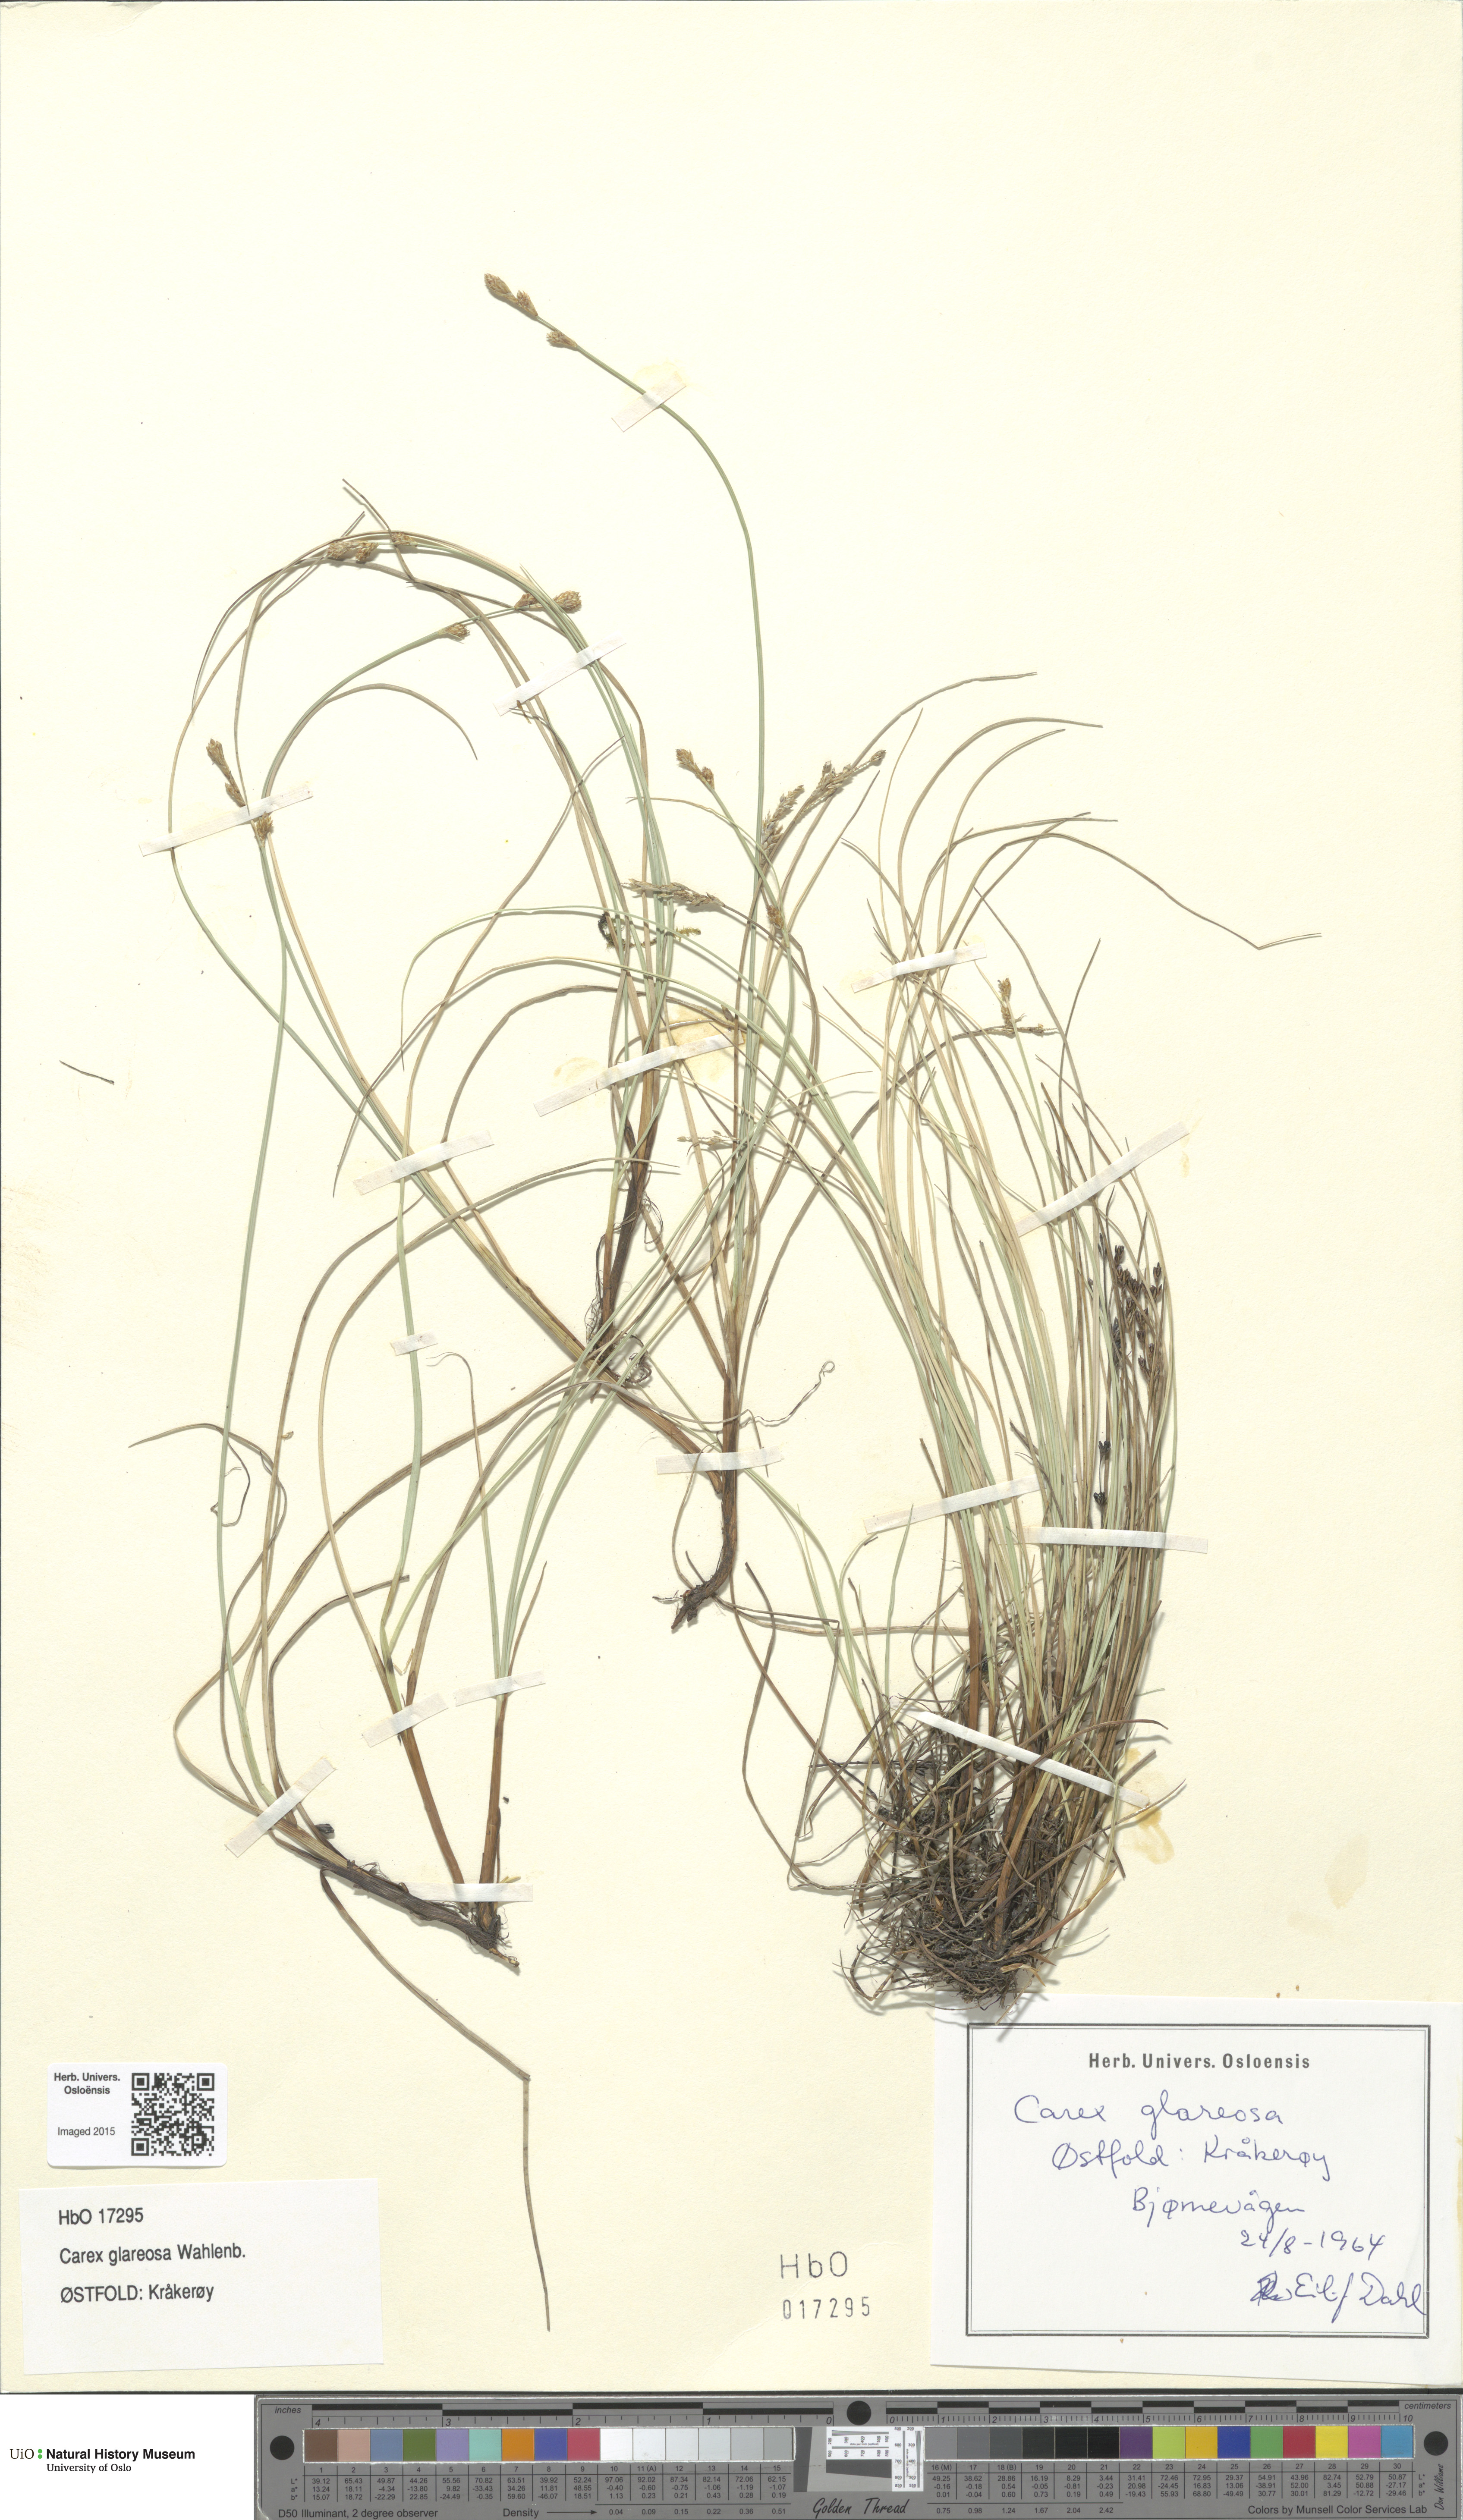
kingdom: Plantae
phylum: Tracheophyta
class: Liliopsida
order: Poales
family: Cyperaceae
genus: Carex
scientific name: Carex glareosa
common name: Clustered sedge
